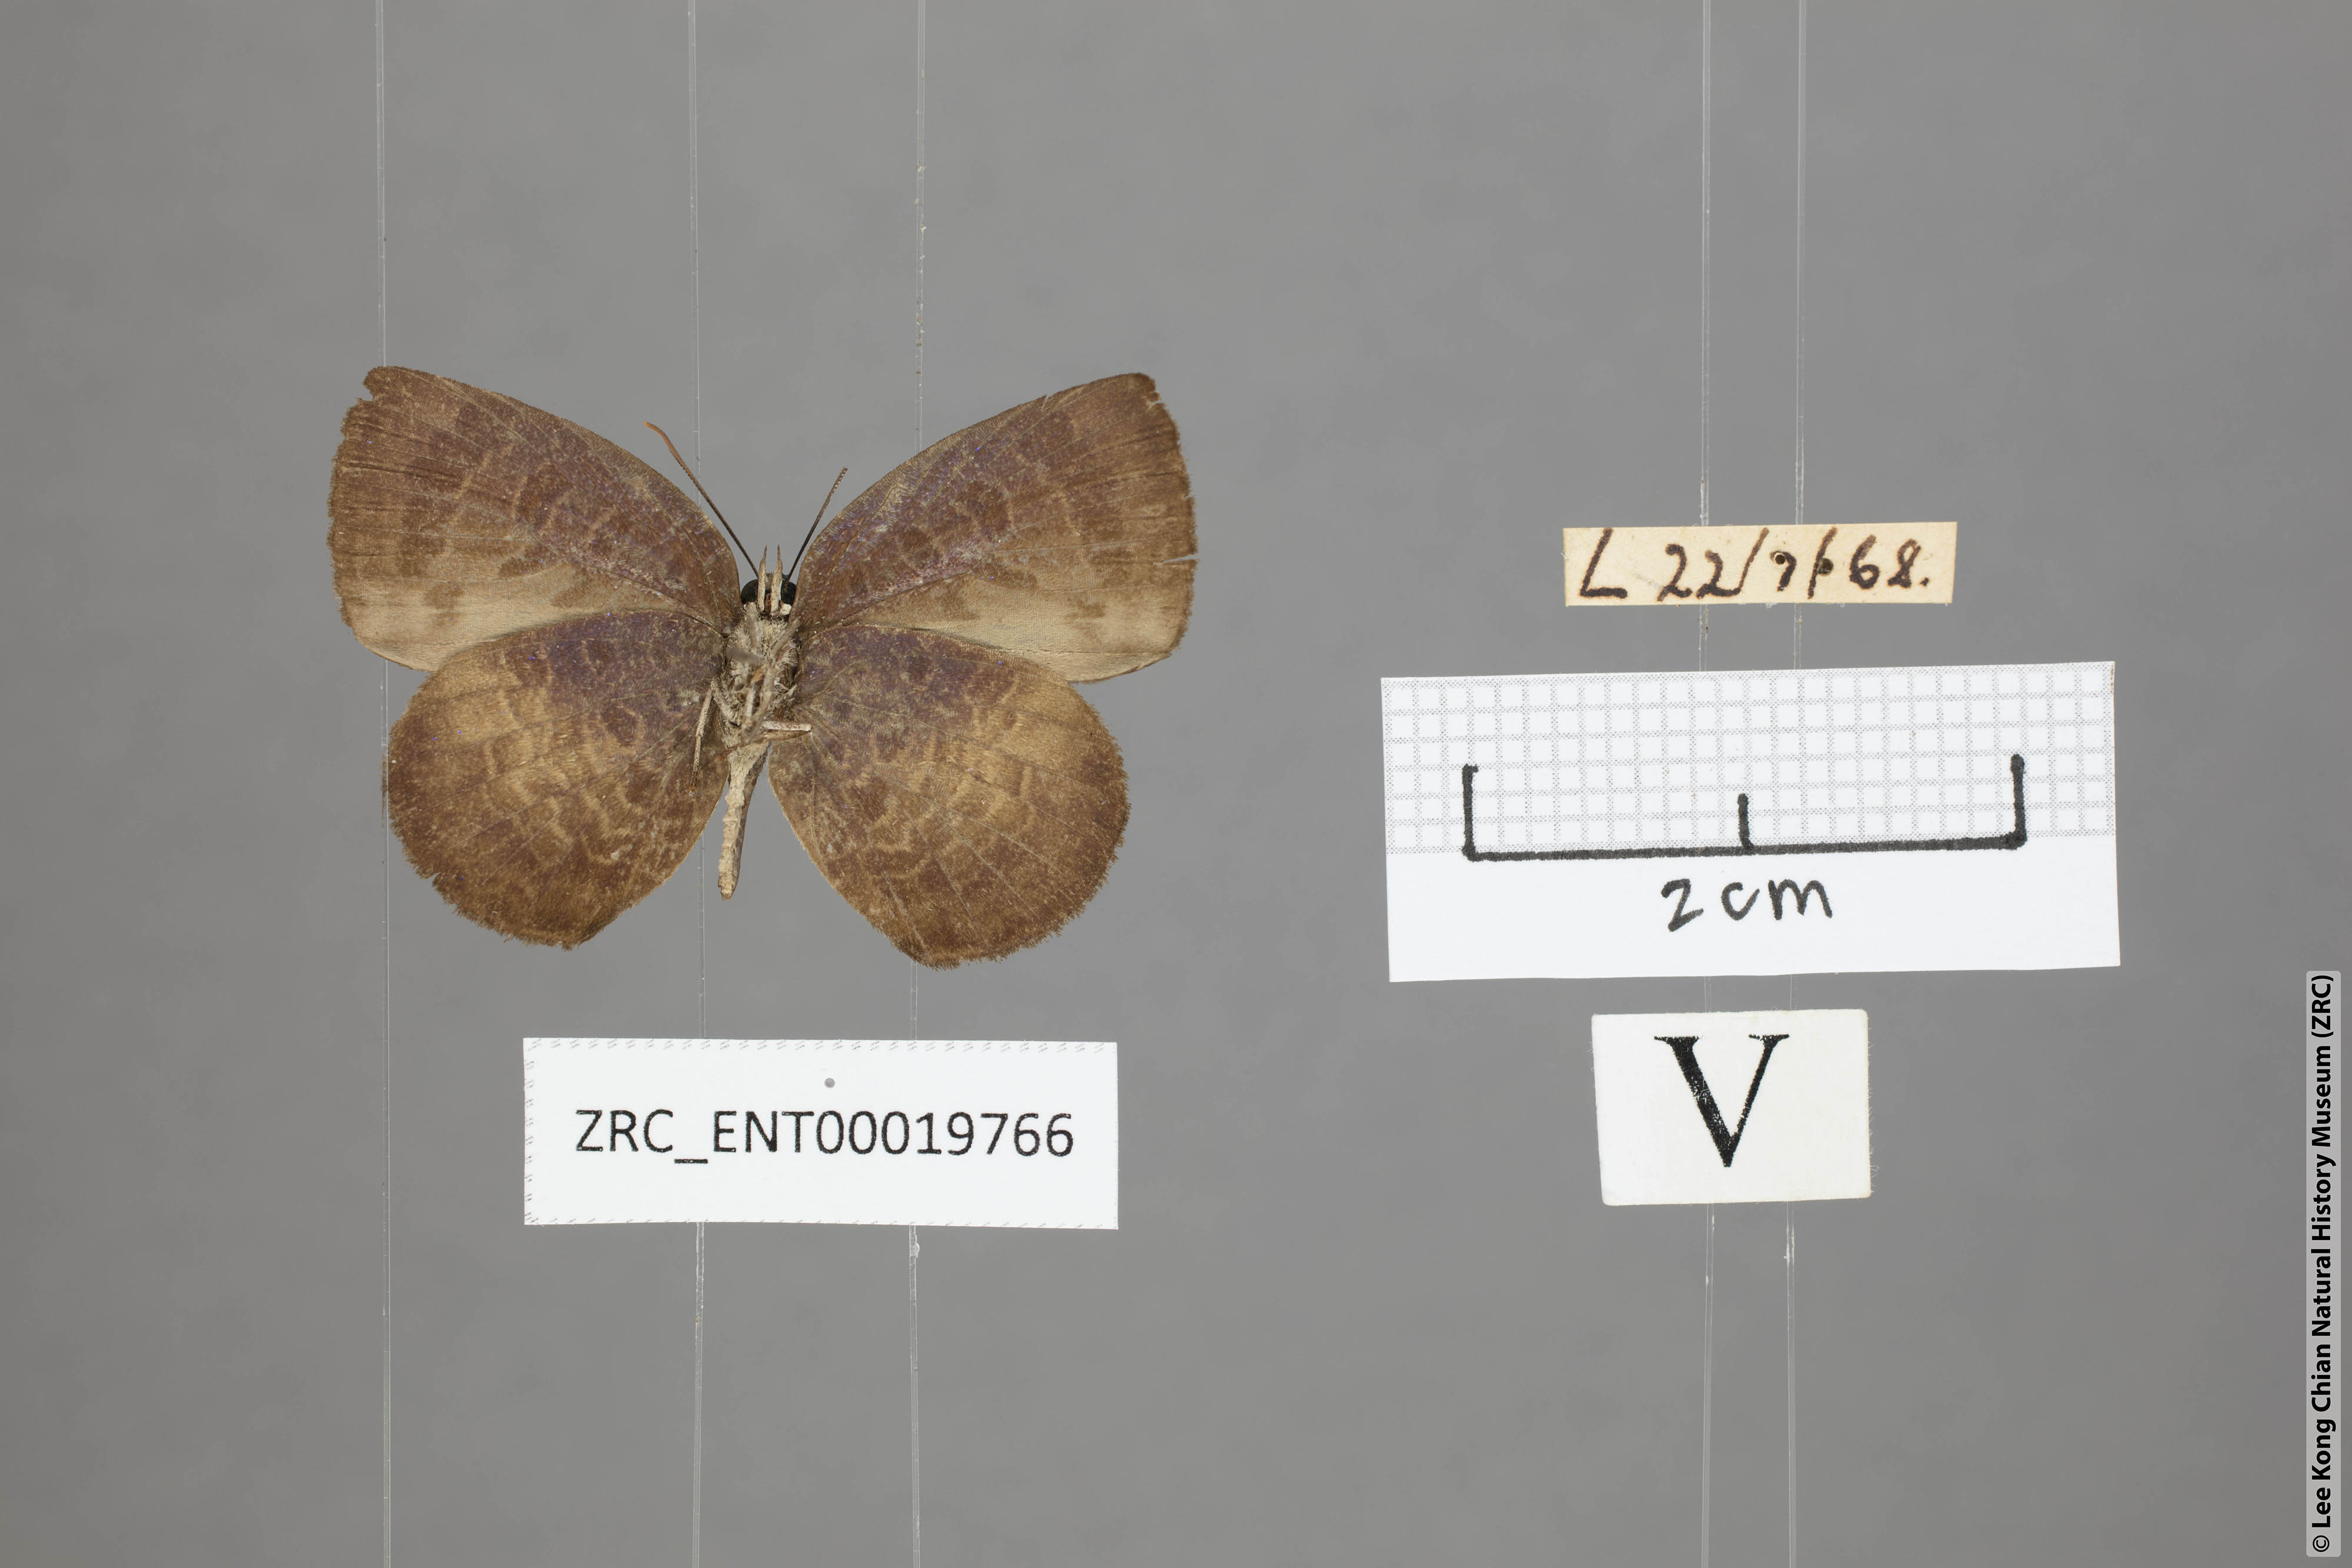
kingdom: Animalia
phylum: Arthropoda
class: Insecta
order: Lepidoptera
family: Lycaenidae
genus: Arhopala
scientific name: Arhopala perimuta
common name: Yellowdisc oakblue
